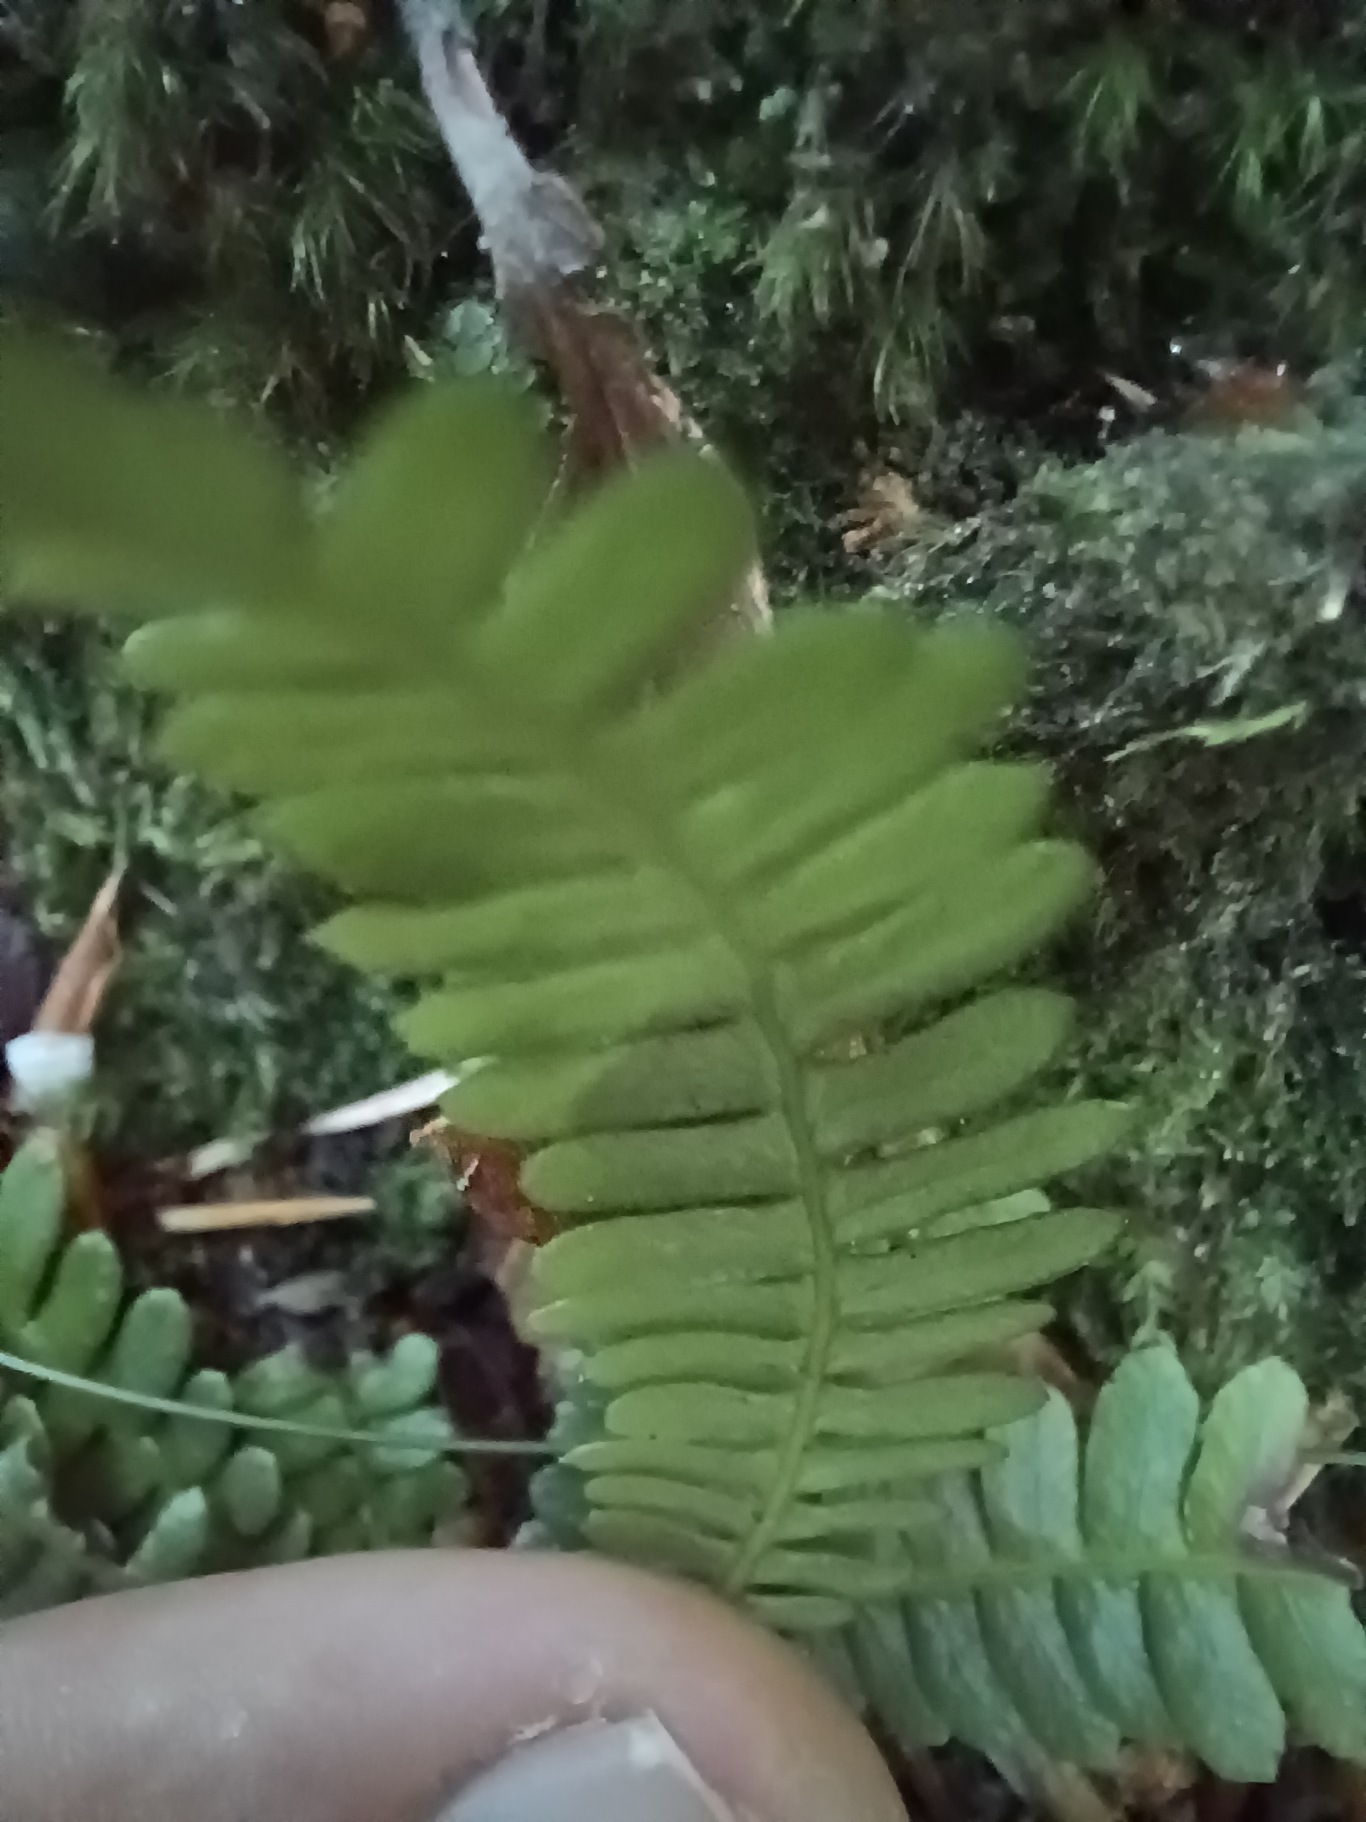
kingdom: Plantae
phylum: Tracheophyta
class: Polypodiopsida
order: Polypodiales
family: Blechnaceae
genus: Struthiopteris
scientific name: Struthiopteris spicant
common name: Kambregne
